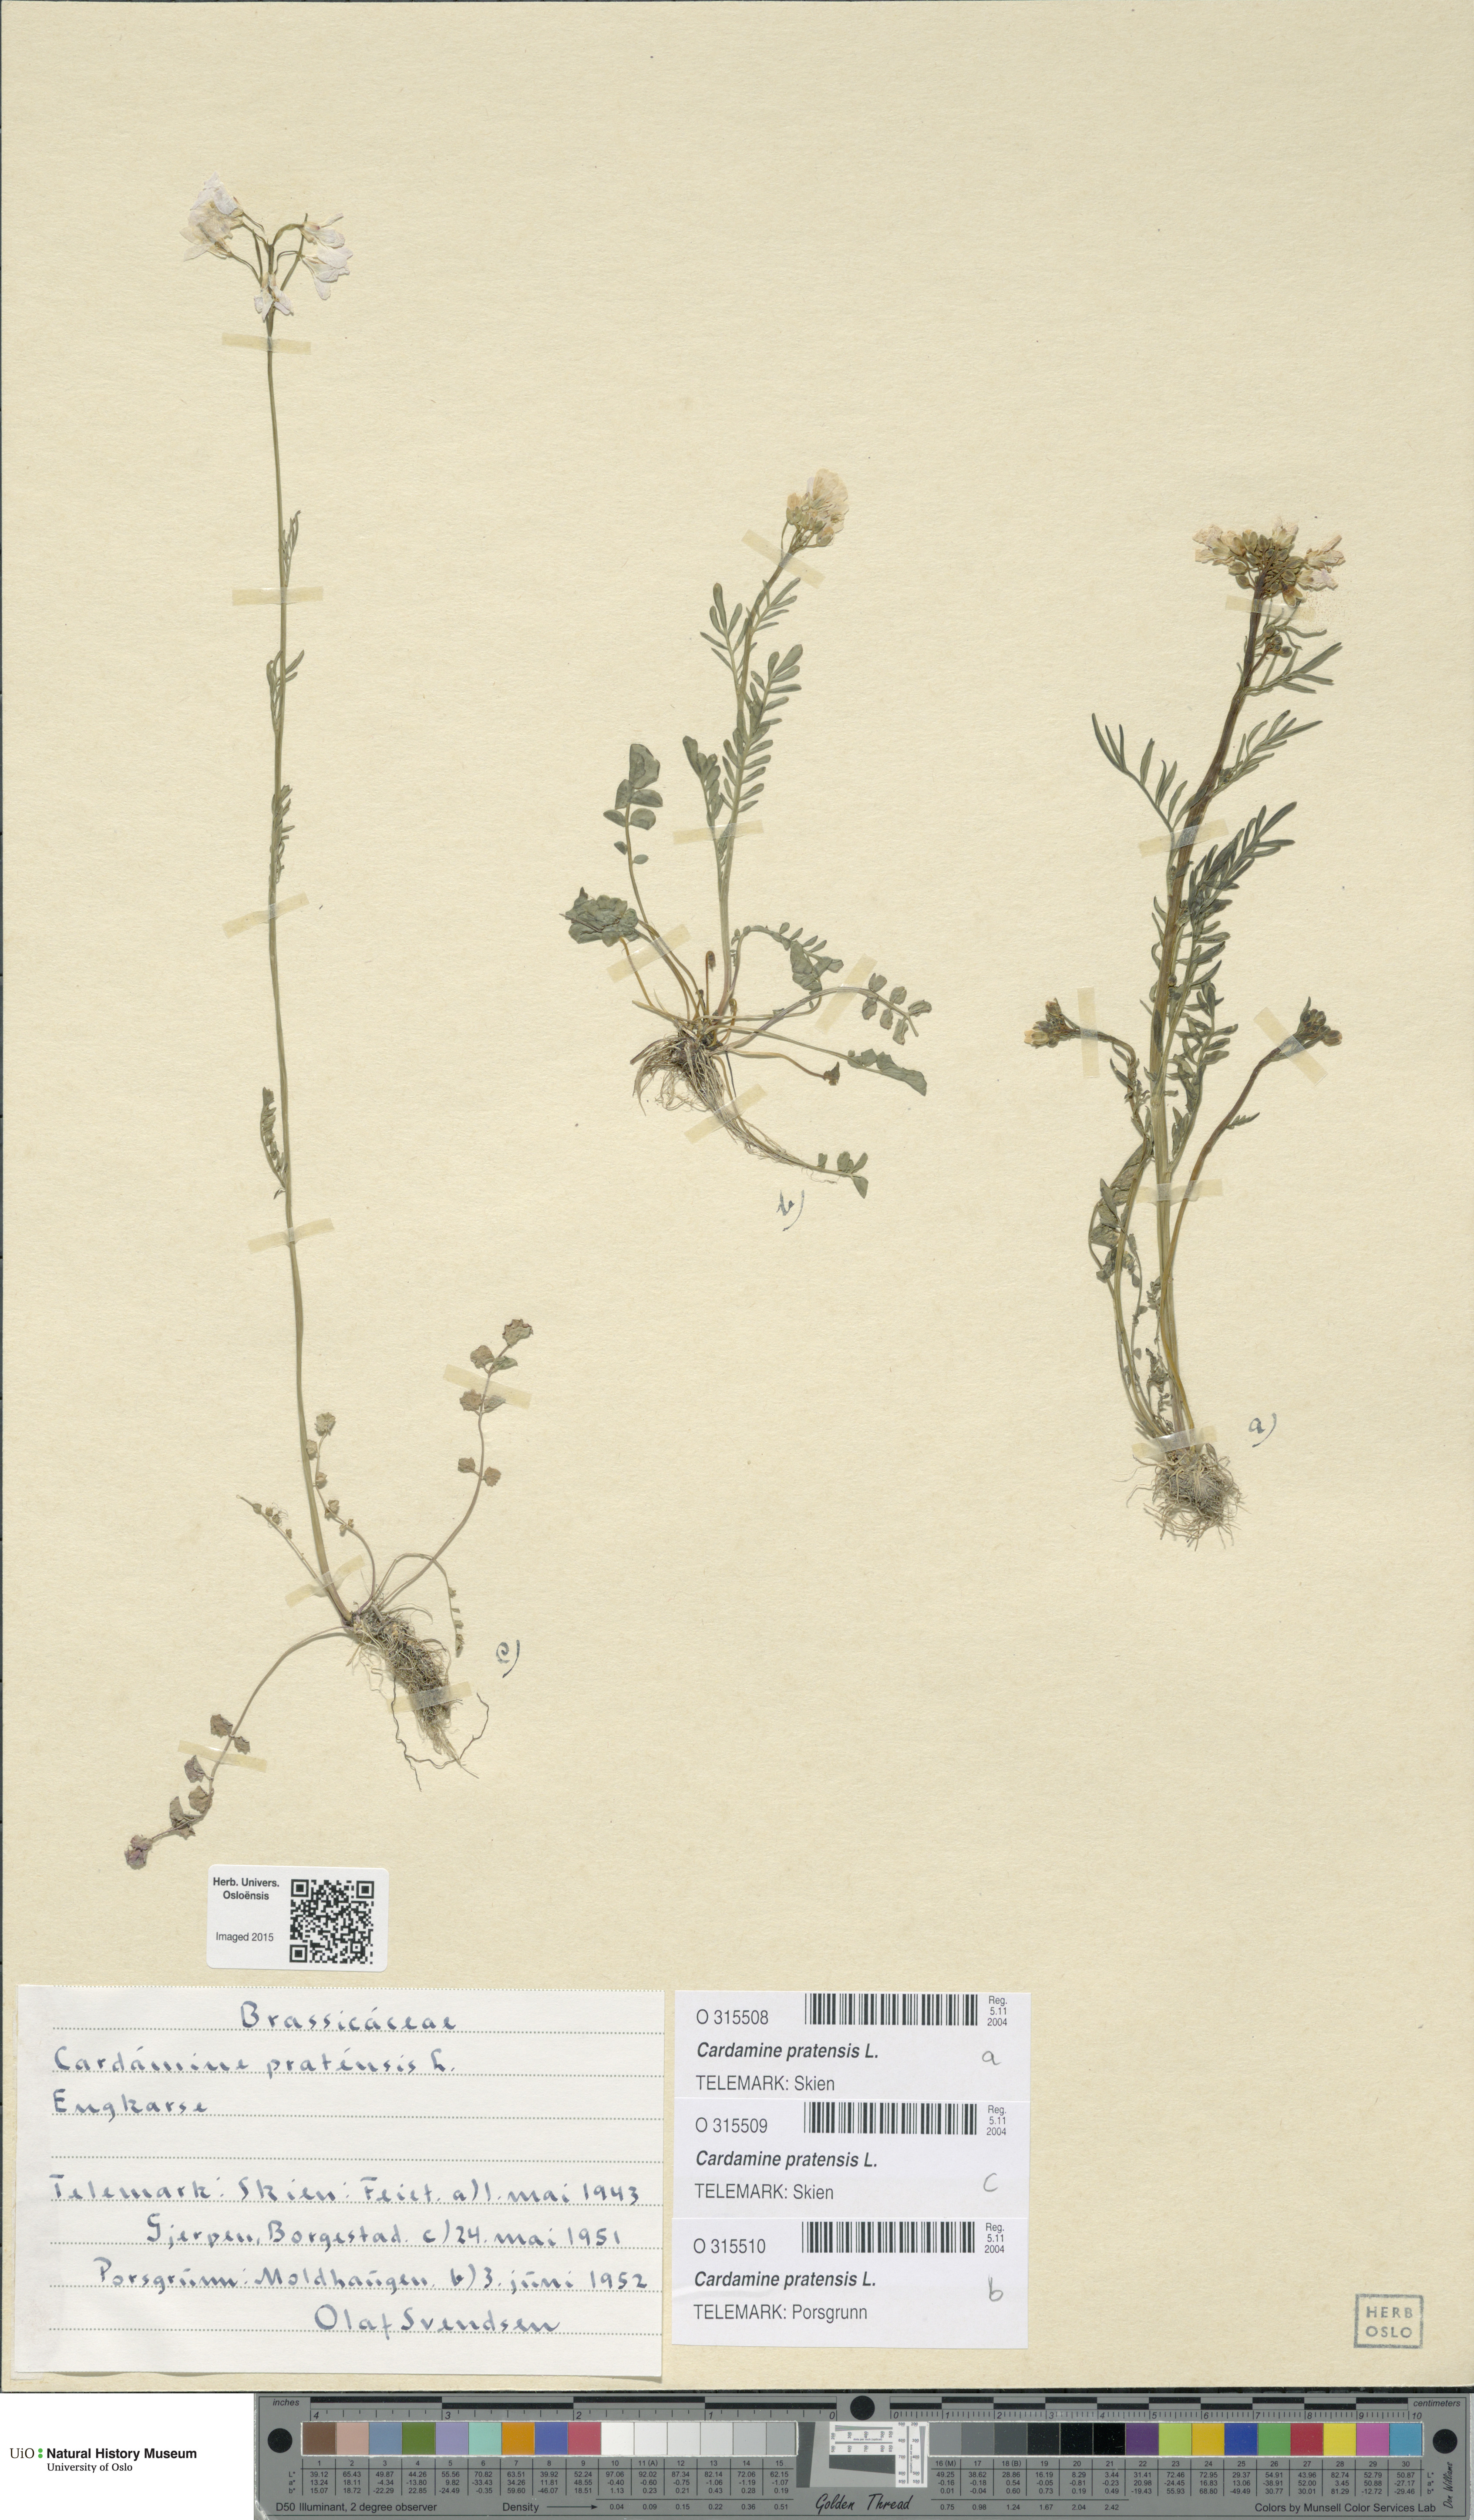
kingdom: Plantae
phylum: Tracheophyta
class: Magnoliopsida
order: Brassicales
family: Brassicaceae
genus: Cardamine
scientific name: Cardamine pratensis
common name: Cuckoo flower
